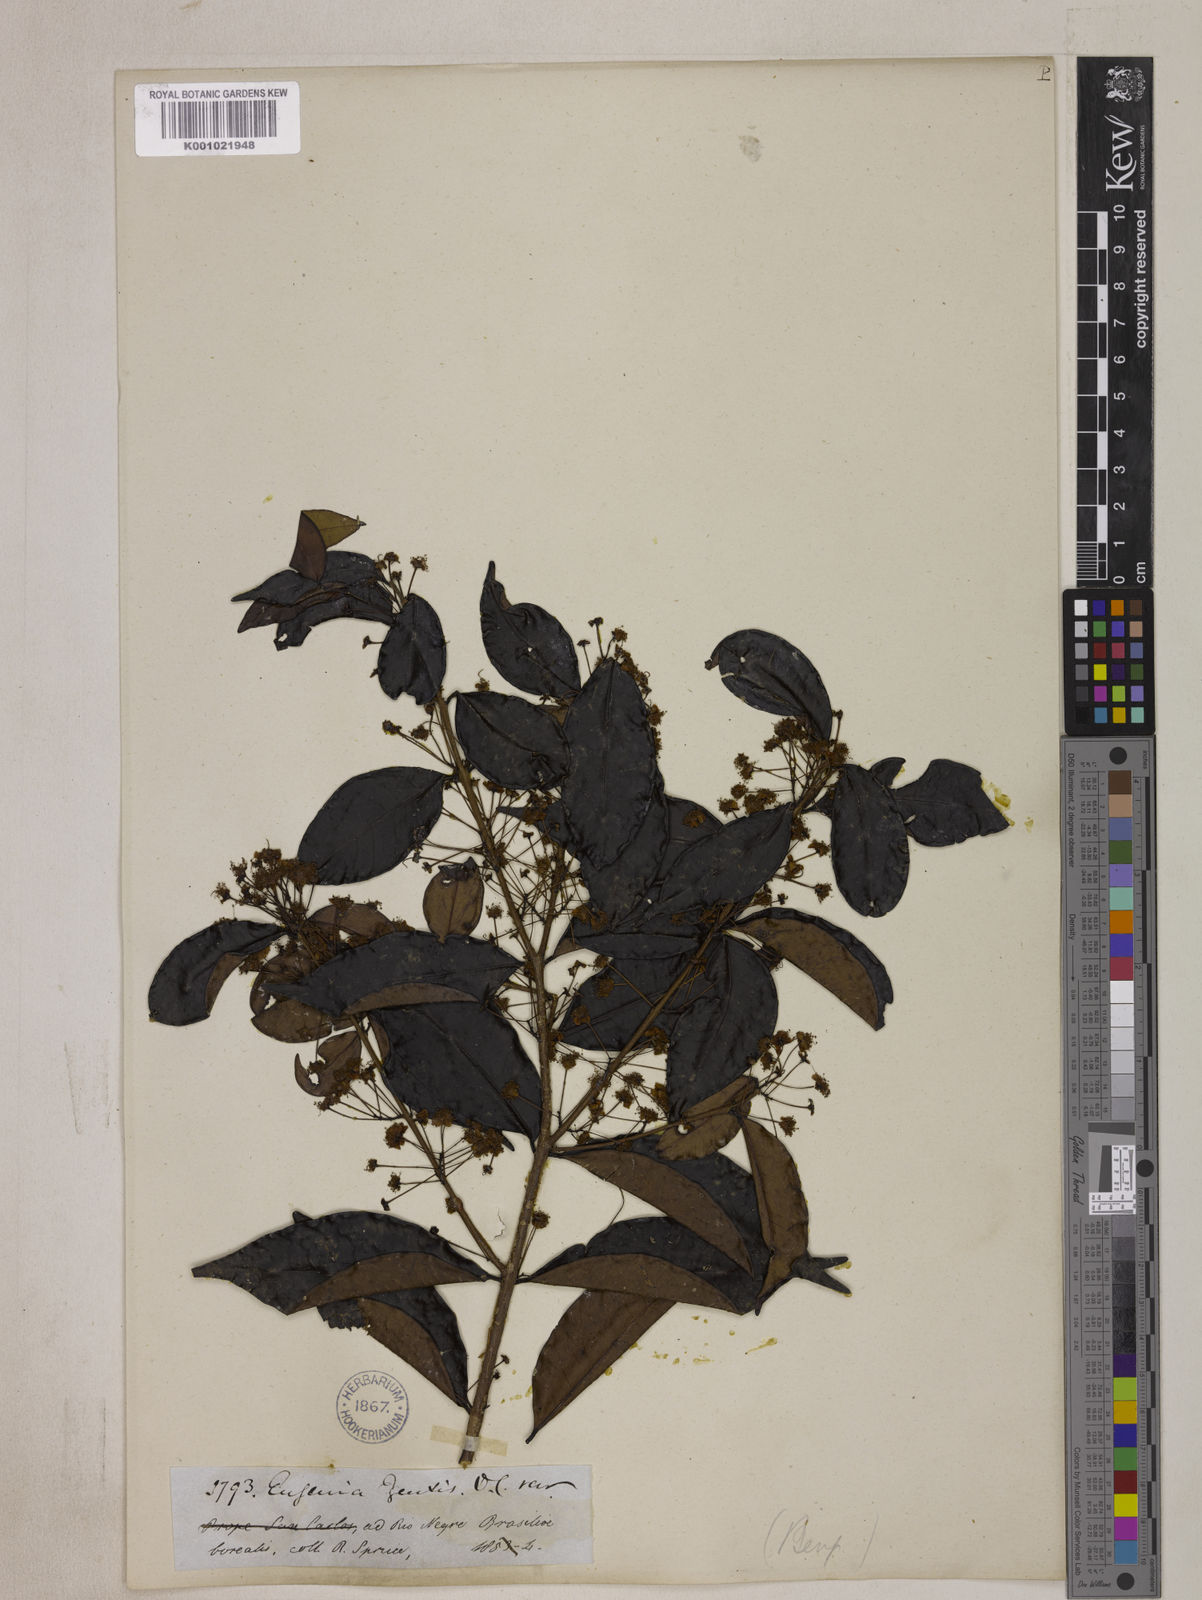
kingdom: Plantae
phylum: Tracheophyta
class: Magnoliopsida
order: Myrtales
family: Myrtaceae
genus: Eugenia
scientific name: Eugenia egensis
